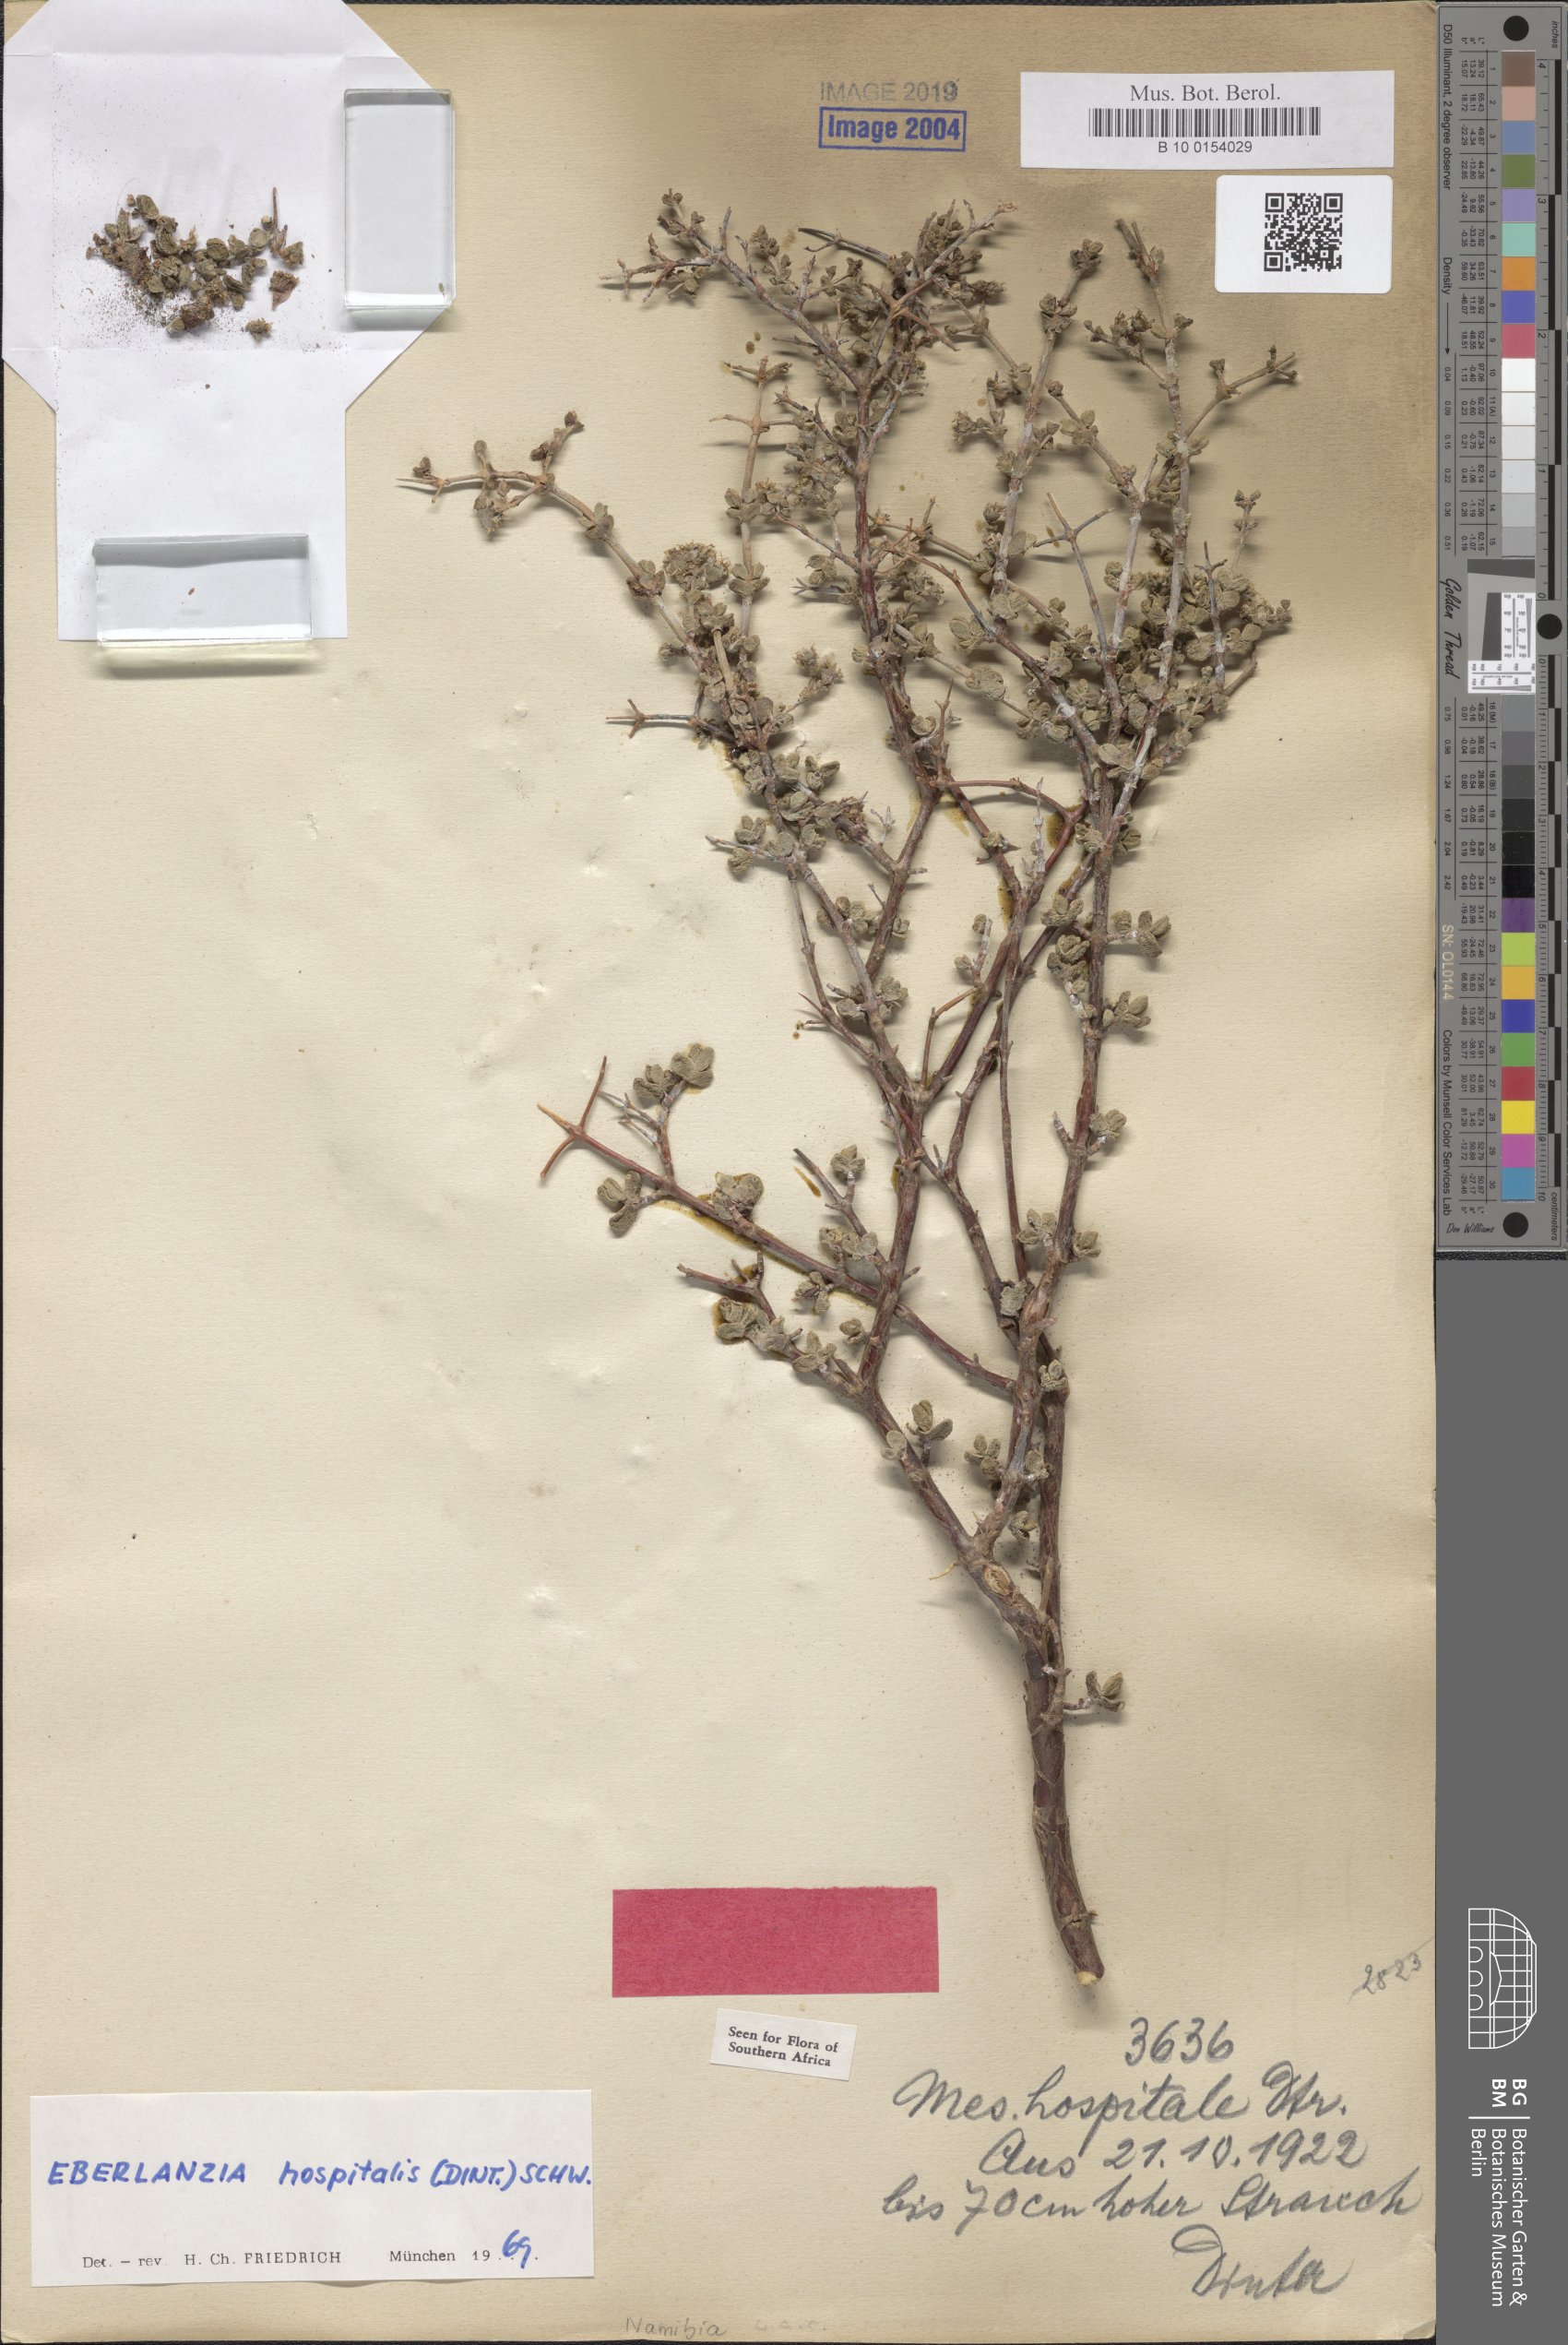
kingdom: Plantae
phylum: Tracheophyta
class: Magnoliopsida
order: Caryophyllales
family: Aizoaceae
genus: Ruschia
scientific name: Ruschia spinosa
